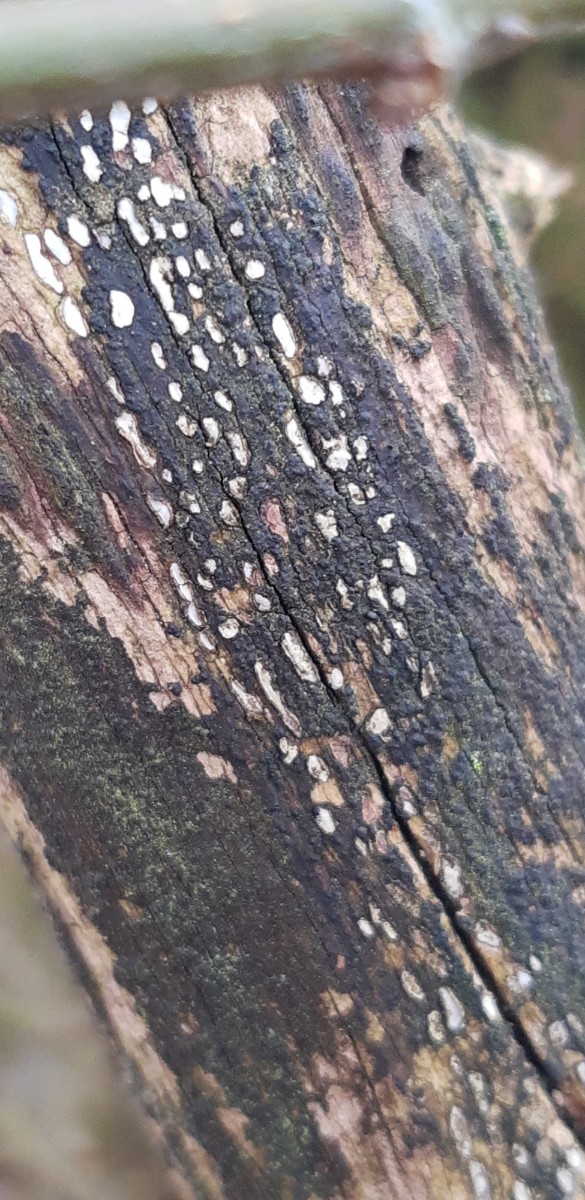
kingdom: Fungi
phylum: Ascomycota
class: Leotiomycetes
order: Chaetomellales
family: Marthamycetaceae
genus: Propolis
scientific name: Propolis farinosa
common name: almindelig vedsprængerskive
